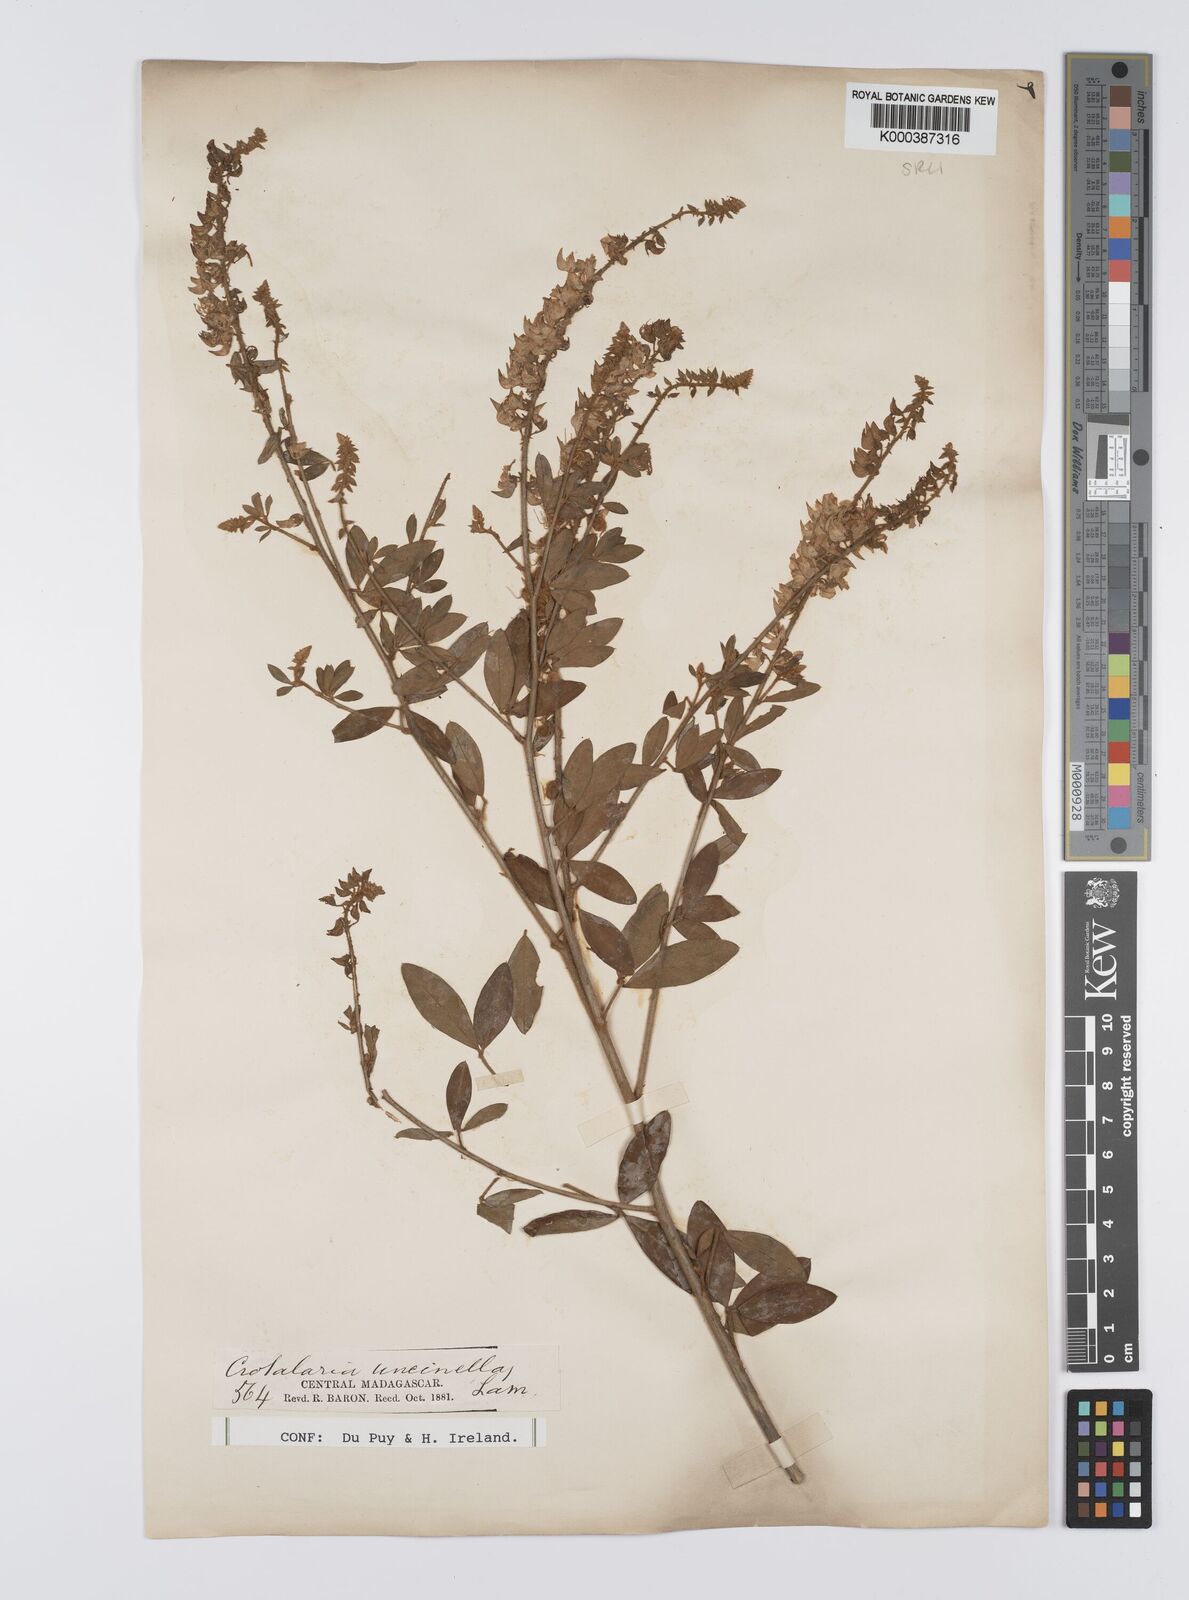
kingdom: Plantae
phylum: Tracheophyta
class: Magnoliopsida
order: Fabales
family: Fabaceae
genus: Crotalaria
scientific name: Crotalaria uncinella
